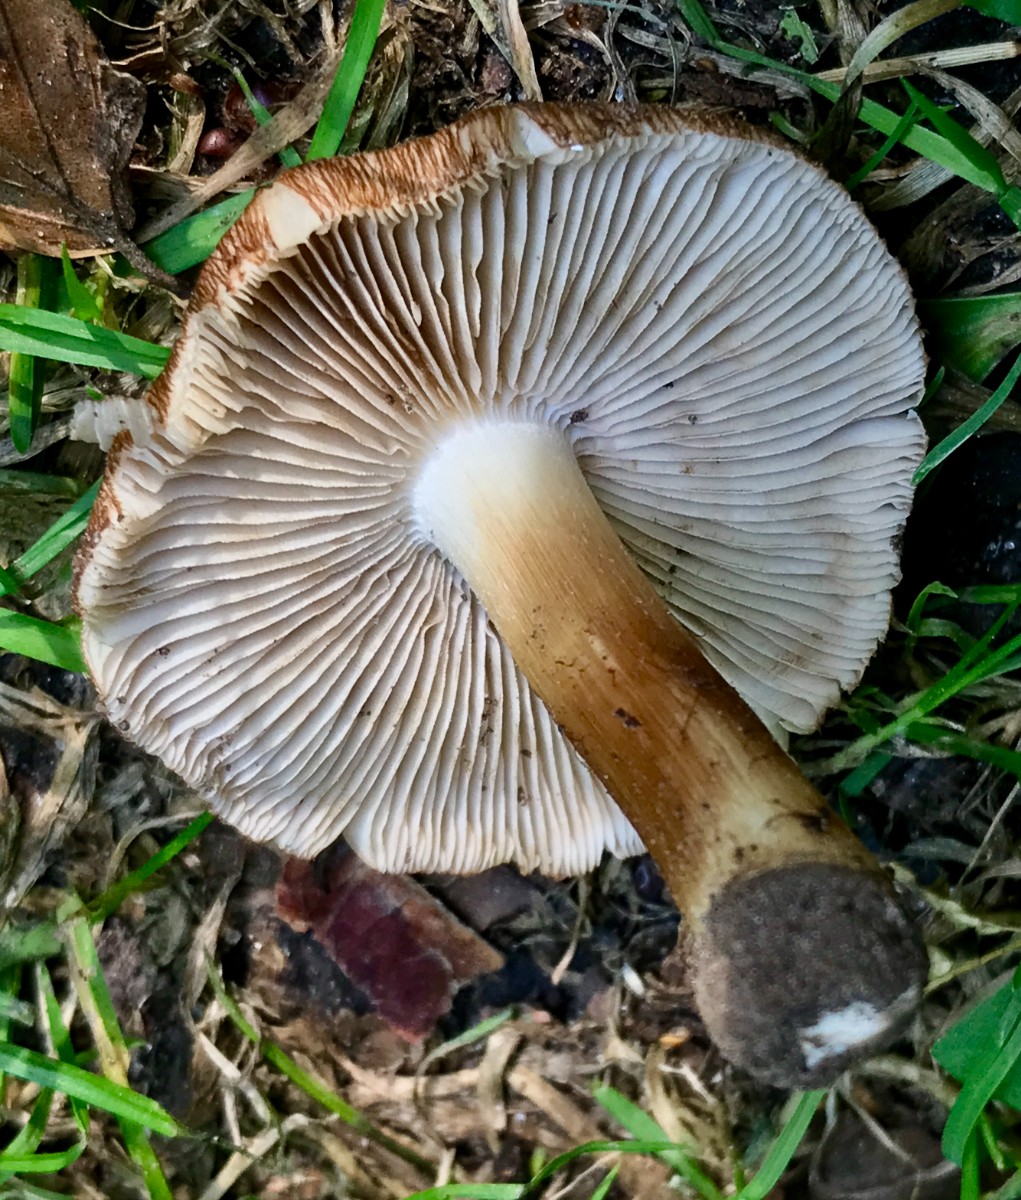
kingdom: Fungi
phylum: Basidiomycota
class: Agaricomycetes
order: Agaricales
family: Inocybaceae
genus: Inosperma
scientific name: Inosperma
